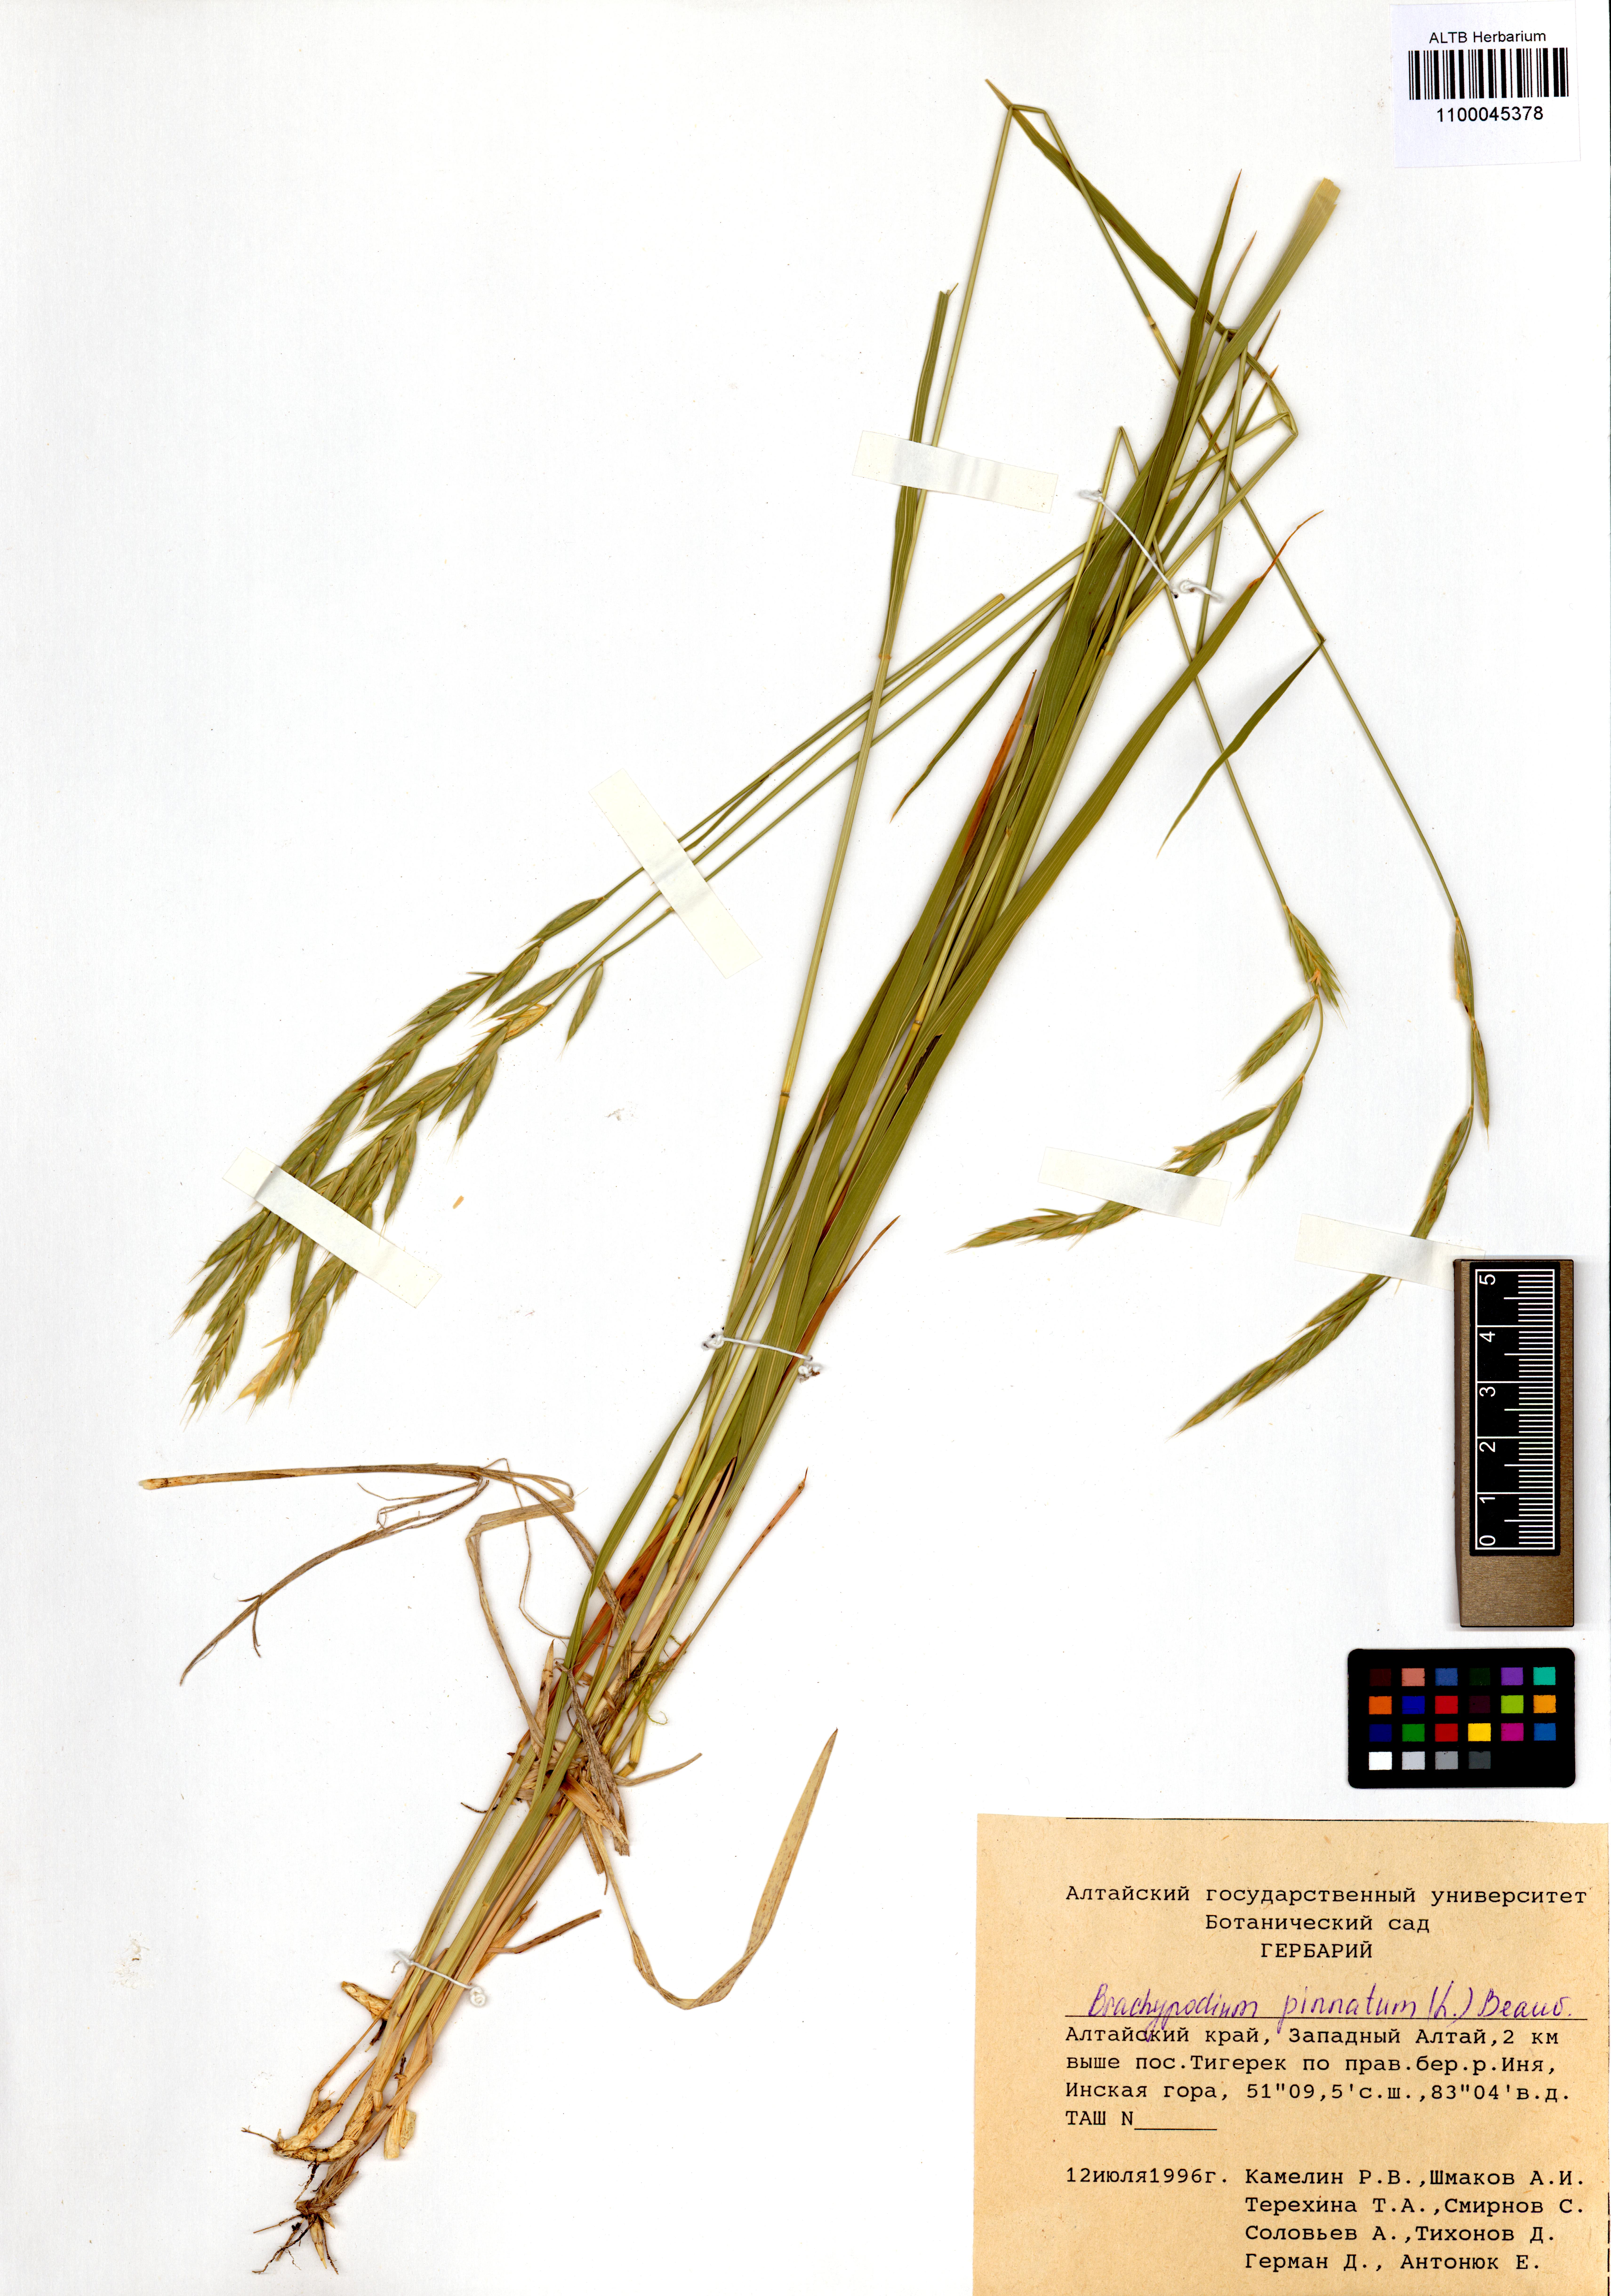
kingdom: Plantae
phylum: Tracheophyta
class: Liliopsida
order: Poales
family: Poaceae
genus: Brachypodium
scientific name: Brachypodium pinnatum
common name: Tor grass
